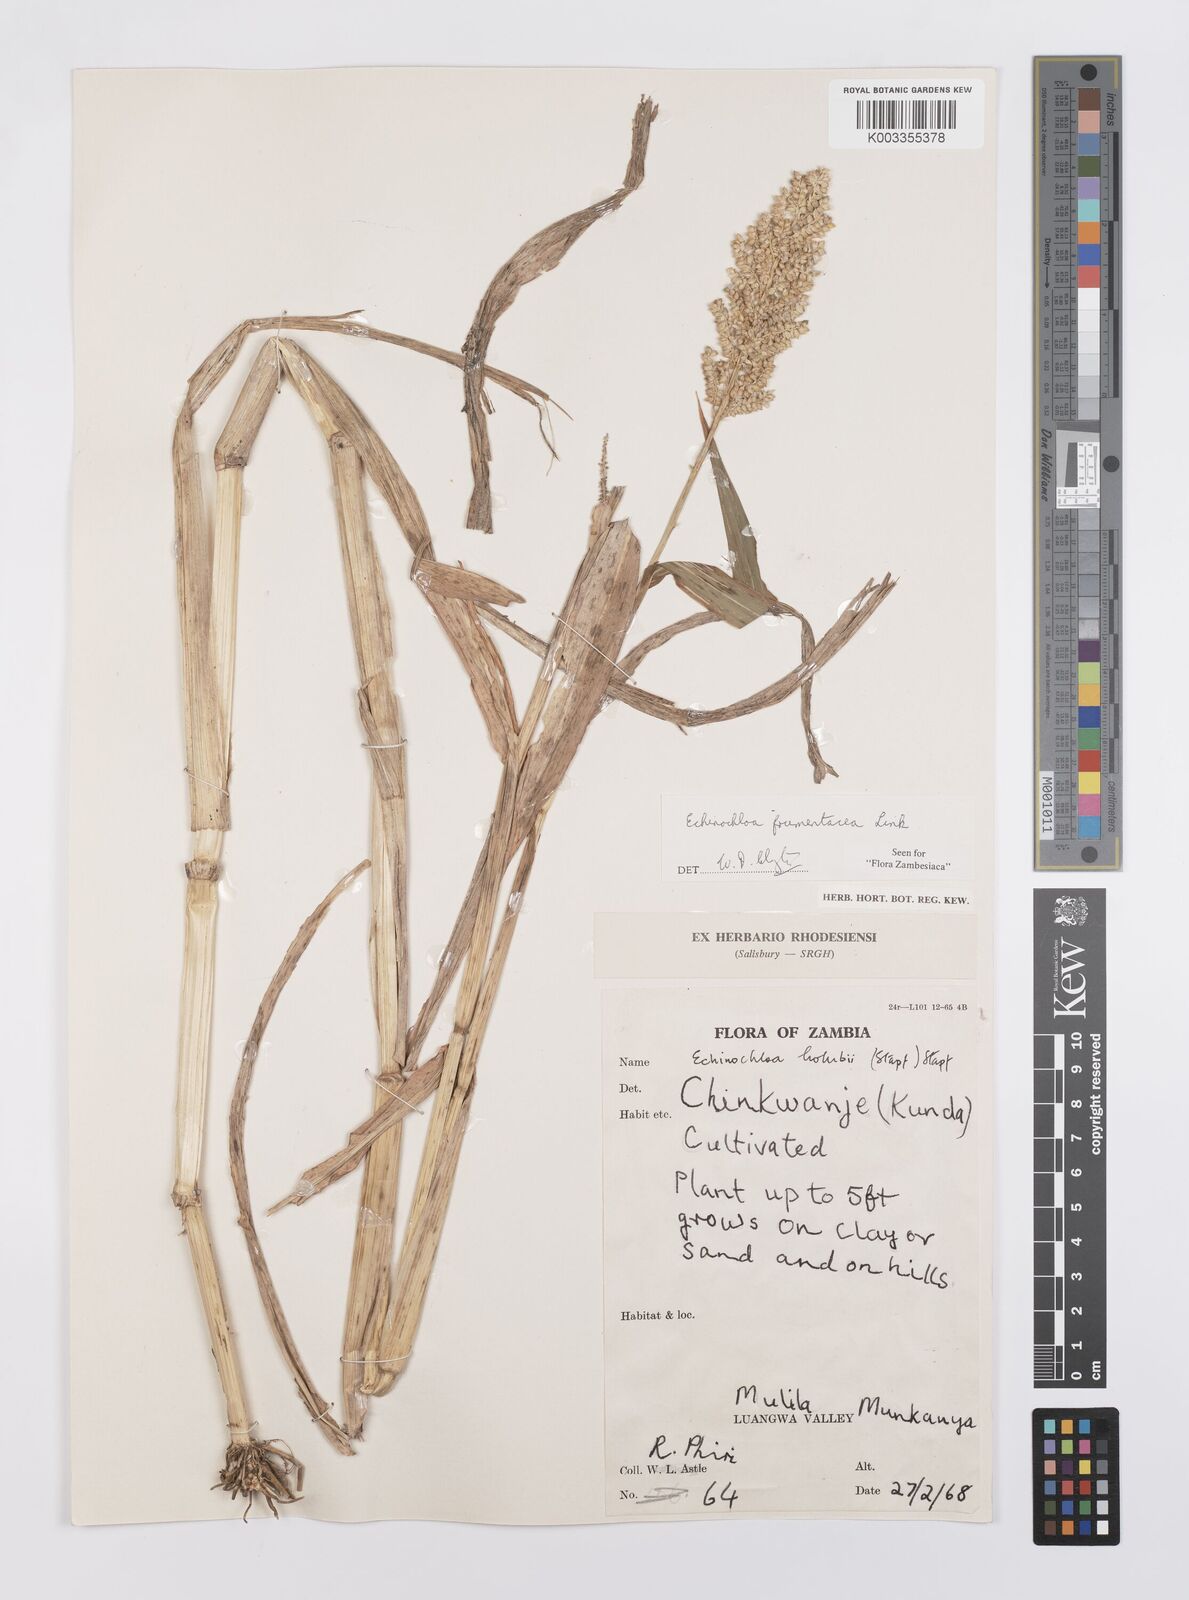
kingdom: Plantae
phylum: Tracheophyta
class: Liliopsida
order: Poales
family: Poaceae
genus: Echinochloa
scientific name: Echinochloa frumentacea
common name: Billion-dollar grass
